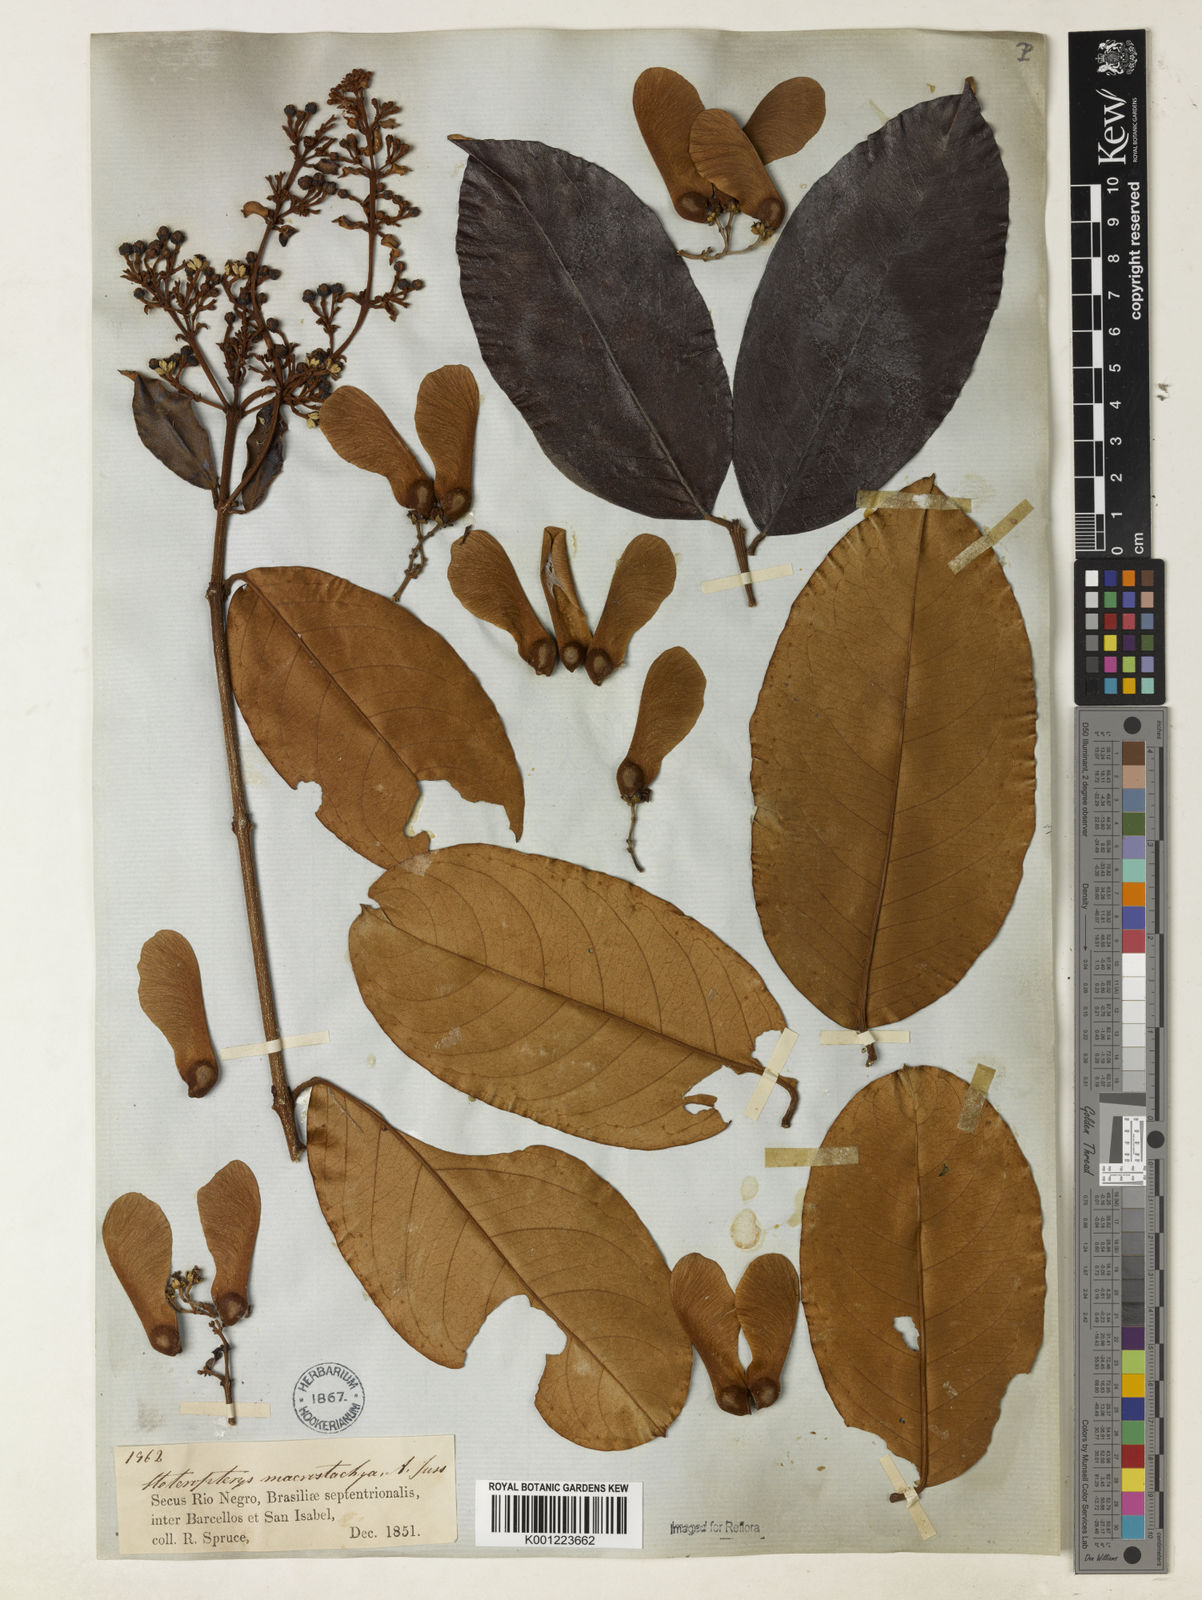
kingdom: Plantae
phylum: Tracheophyta
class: Magnoliopsida
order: Malpighiales
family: Malpighiaceae
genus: Heteropterys
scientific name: Heteropterys macrostachya
